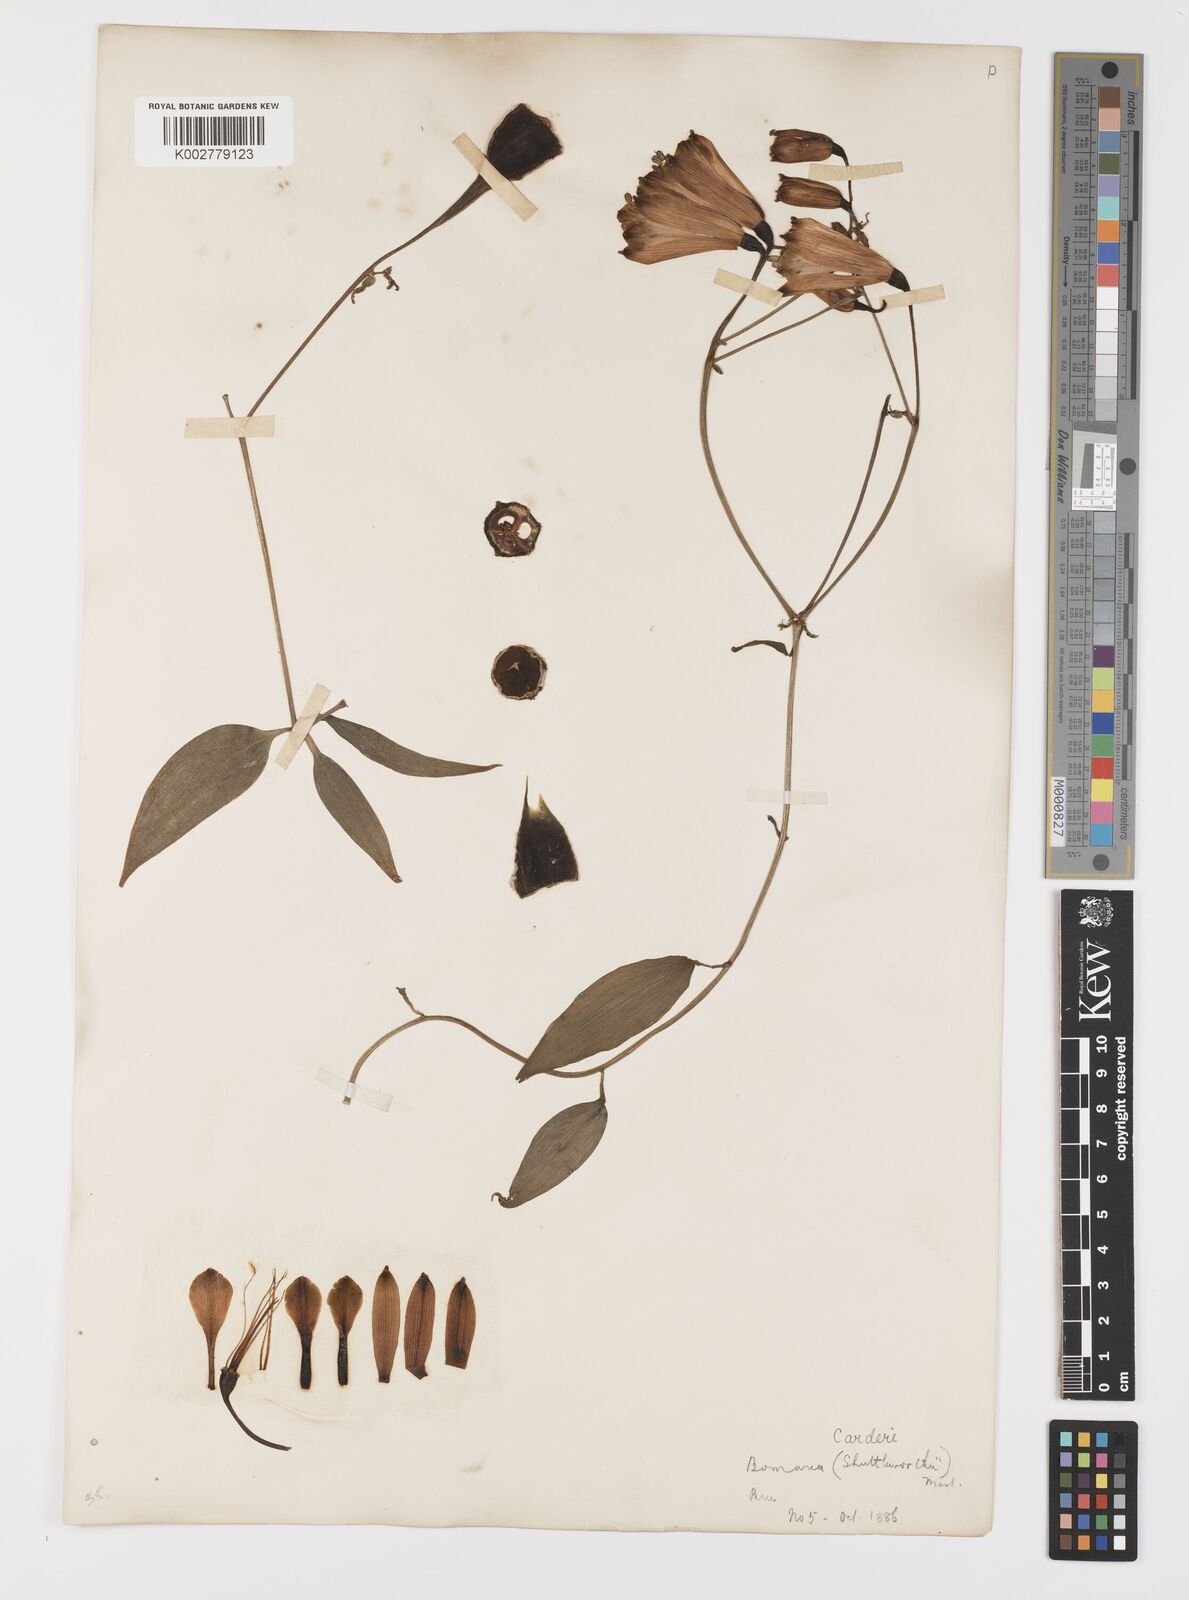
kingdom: Plantae
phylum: Tracheophyta
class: Liliopsida
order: Liliales
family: Alstroemeriaceae
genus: Bomarea
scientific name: Bomarea carderi
